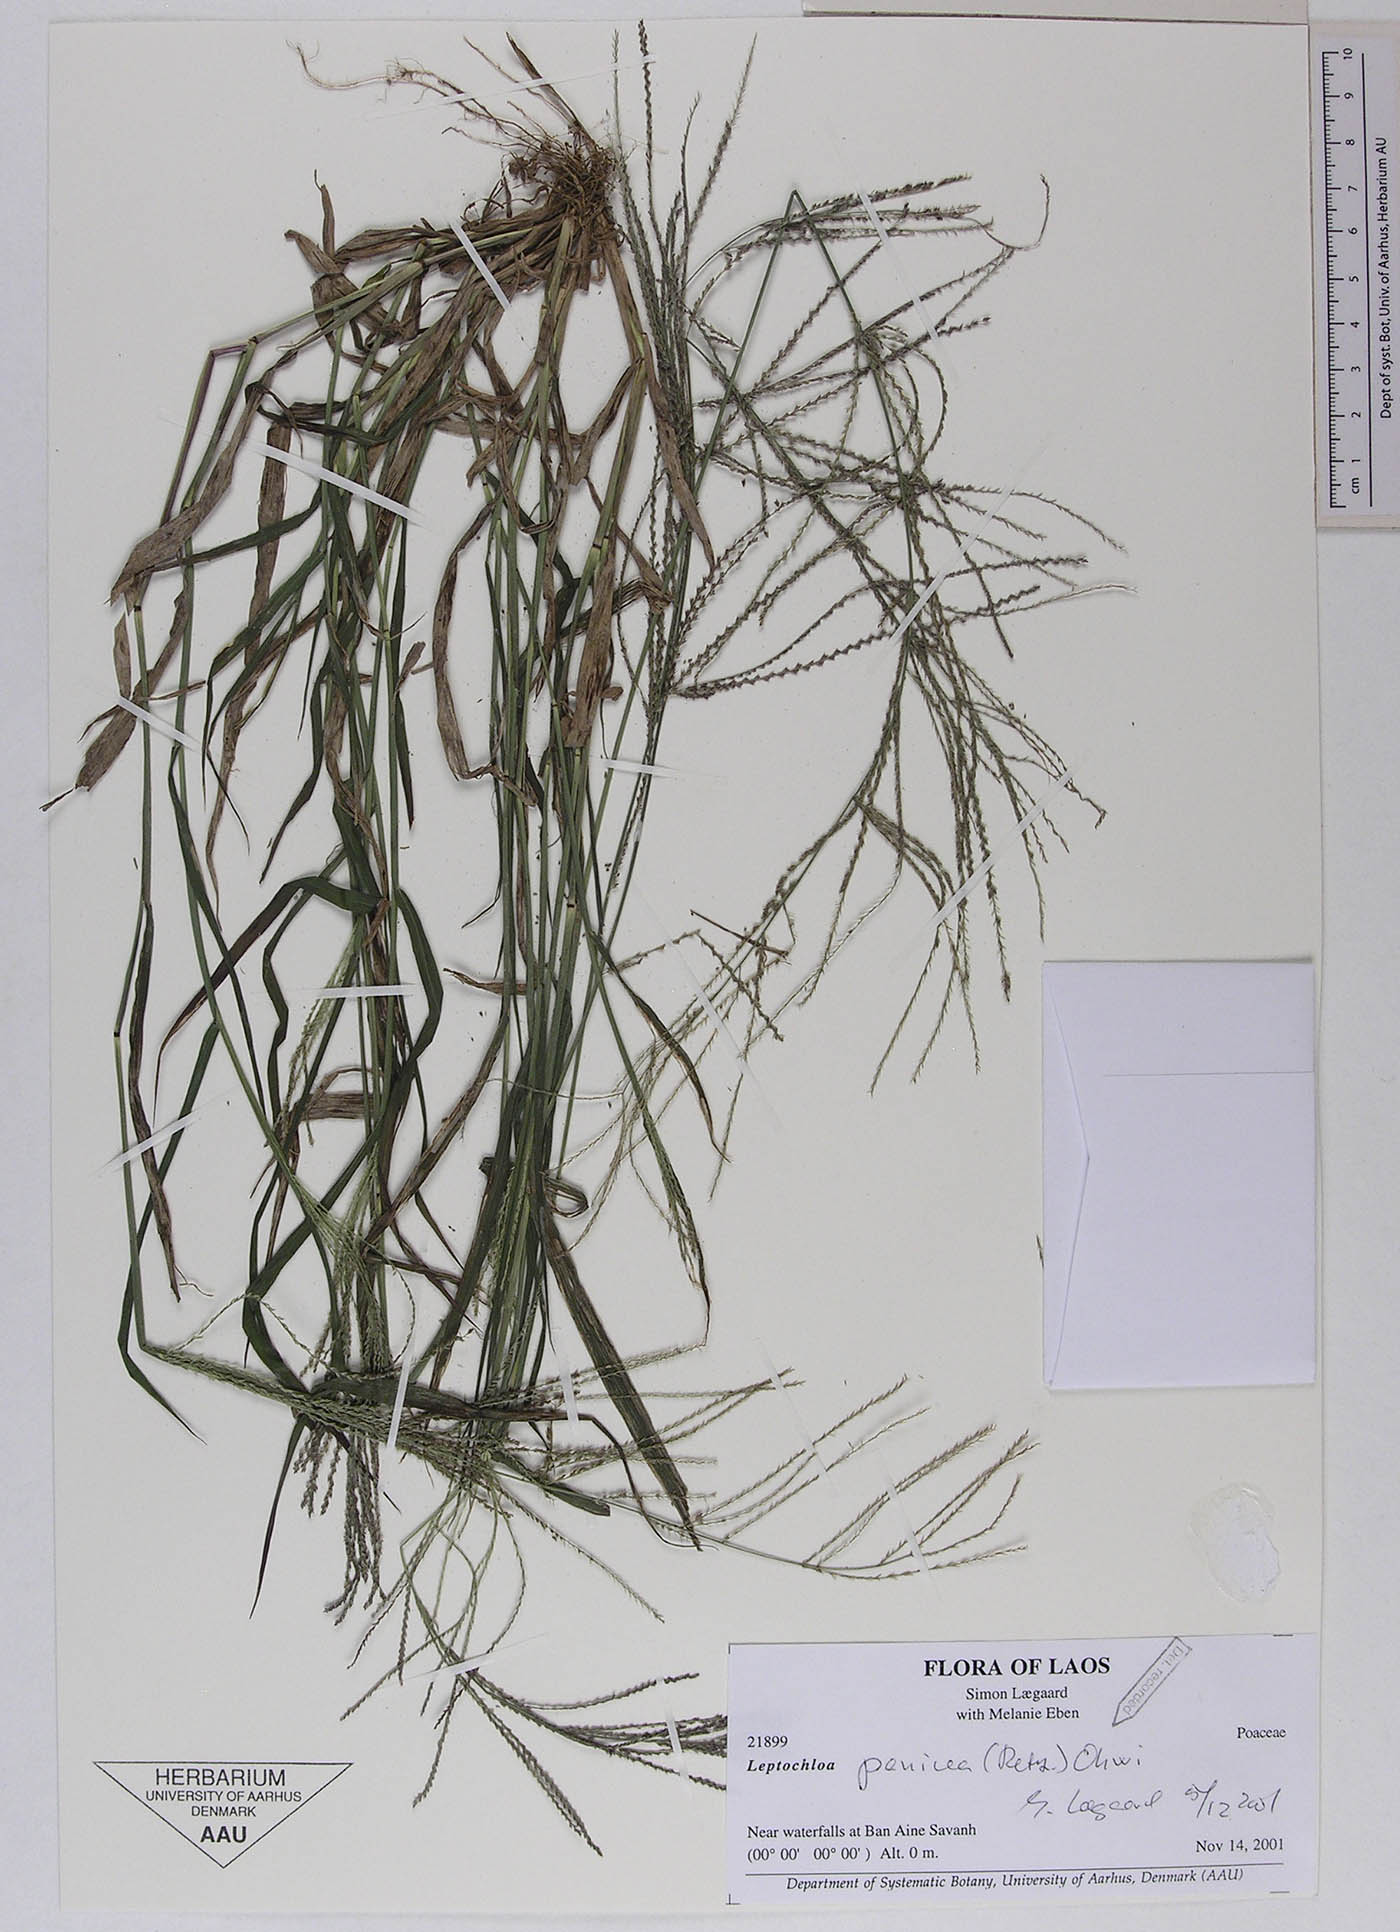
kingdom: Plantae
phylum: Tracheophyta
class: Liliopsida
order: Poales
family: Poaceae
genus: Leptochloa
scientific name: Leptochloa panicea
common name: Mucronate sprangletop
